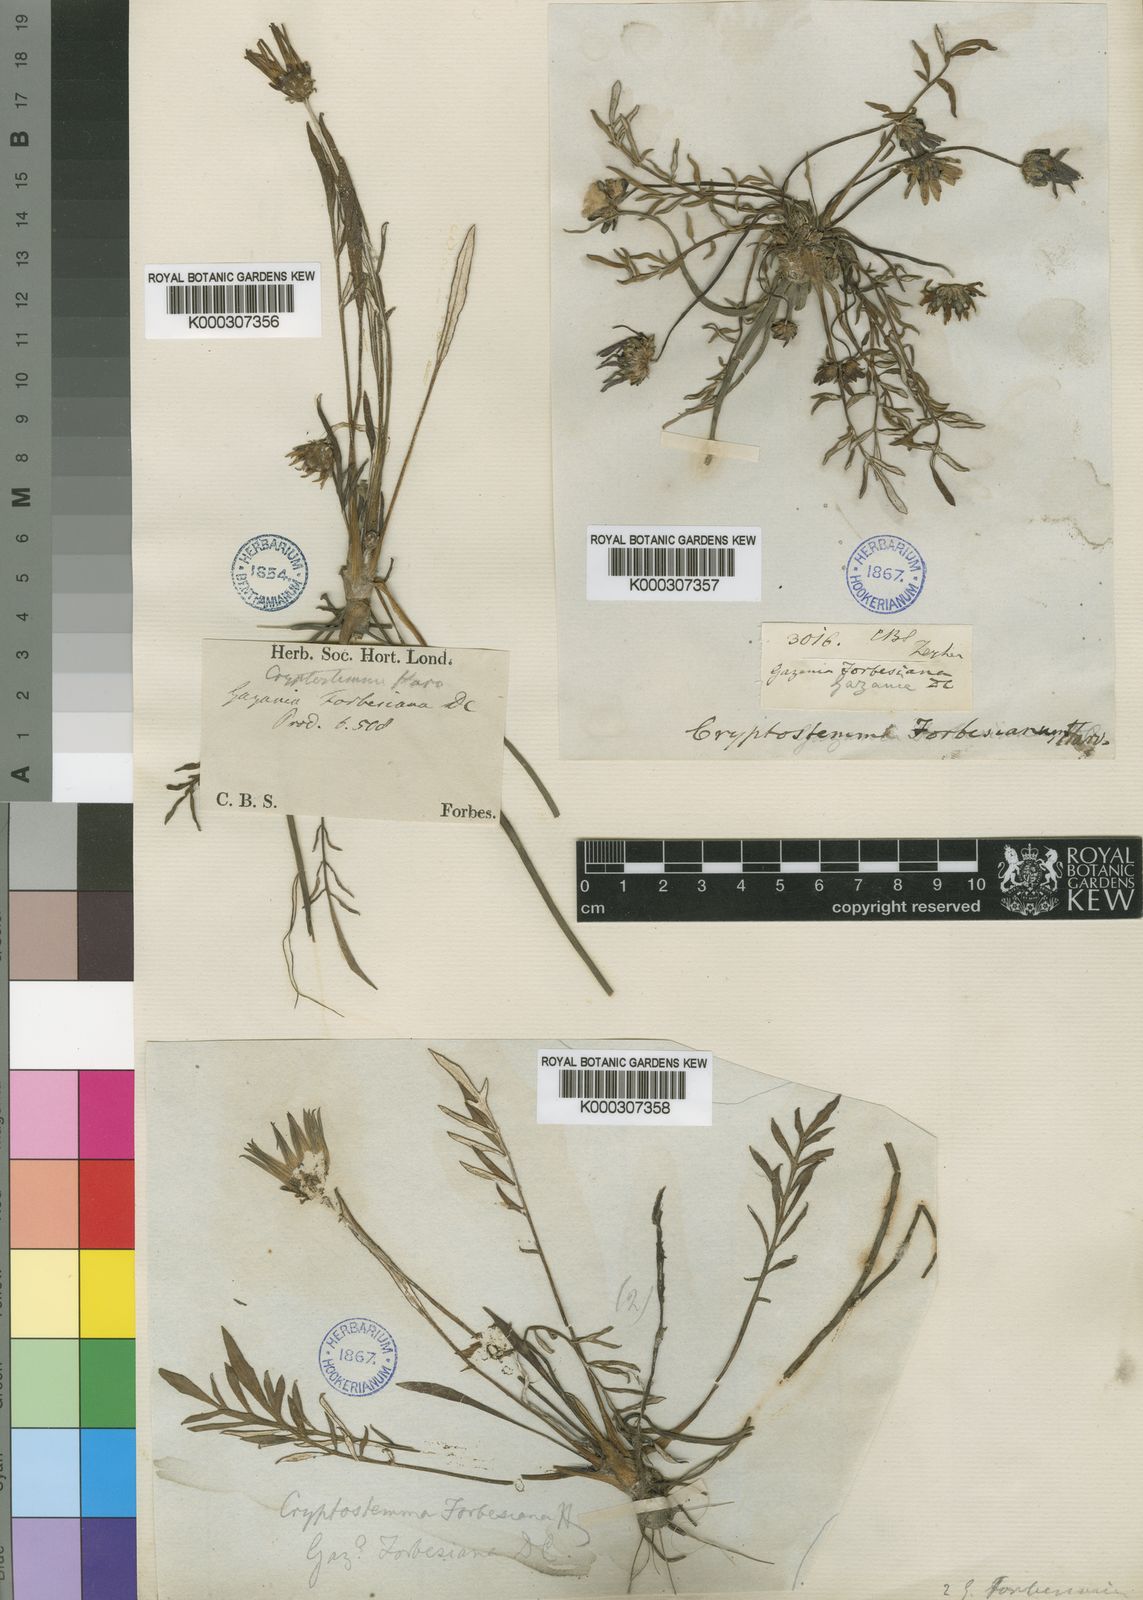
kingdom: Plantae
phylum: Tracheophyta
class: Magnoliopsida
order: Asterales
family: Asteraceae
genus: Arctotheca
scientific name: Arctotheca forbesiana
